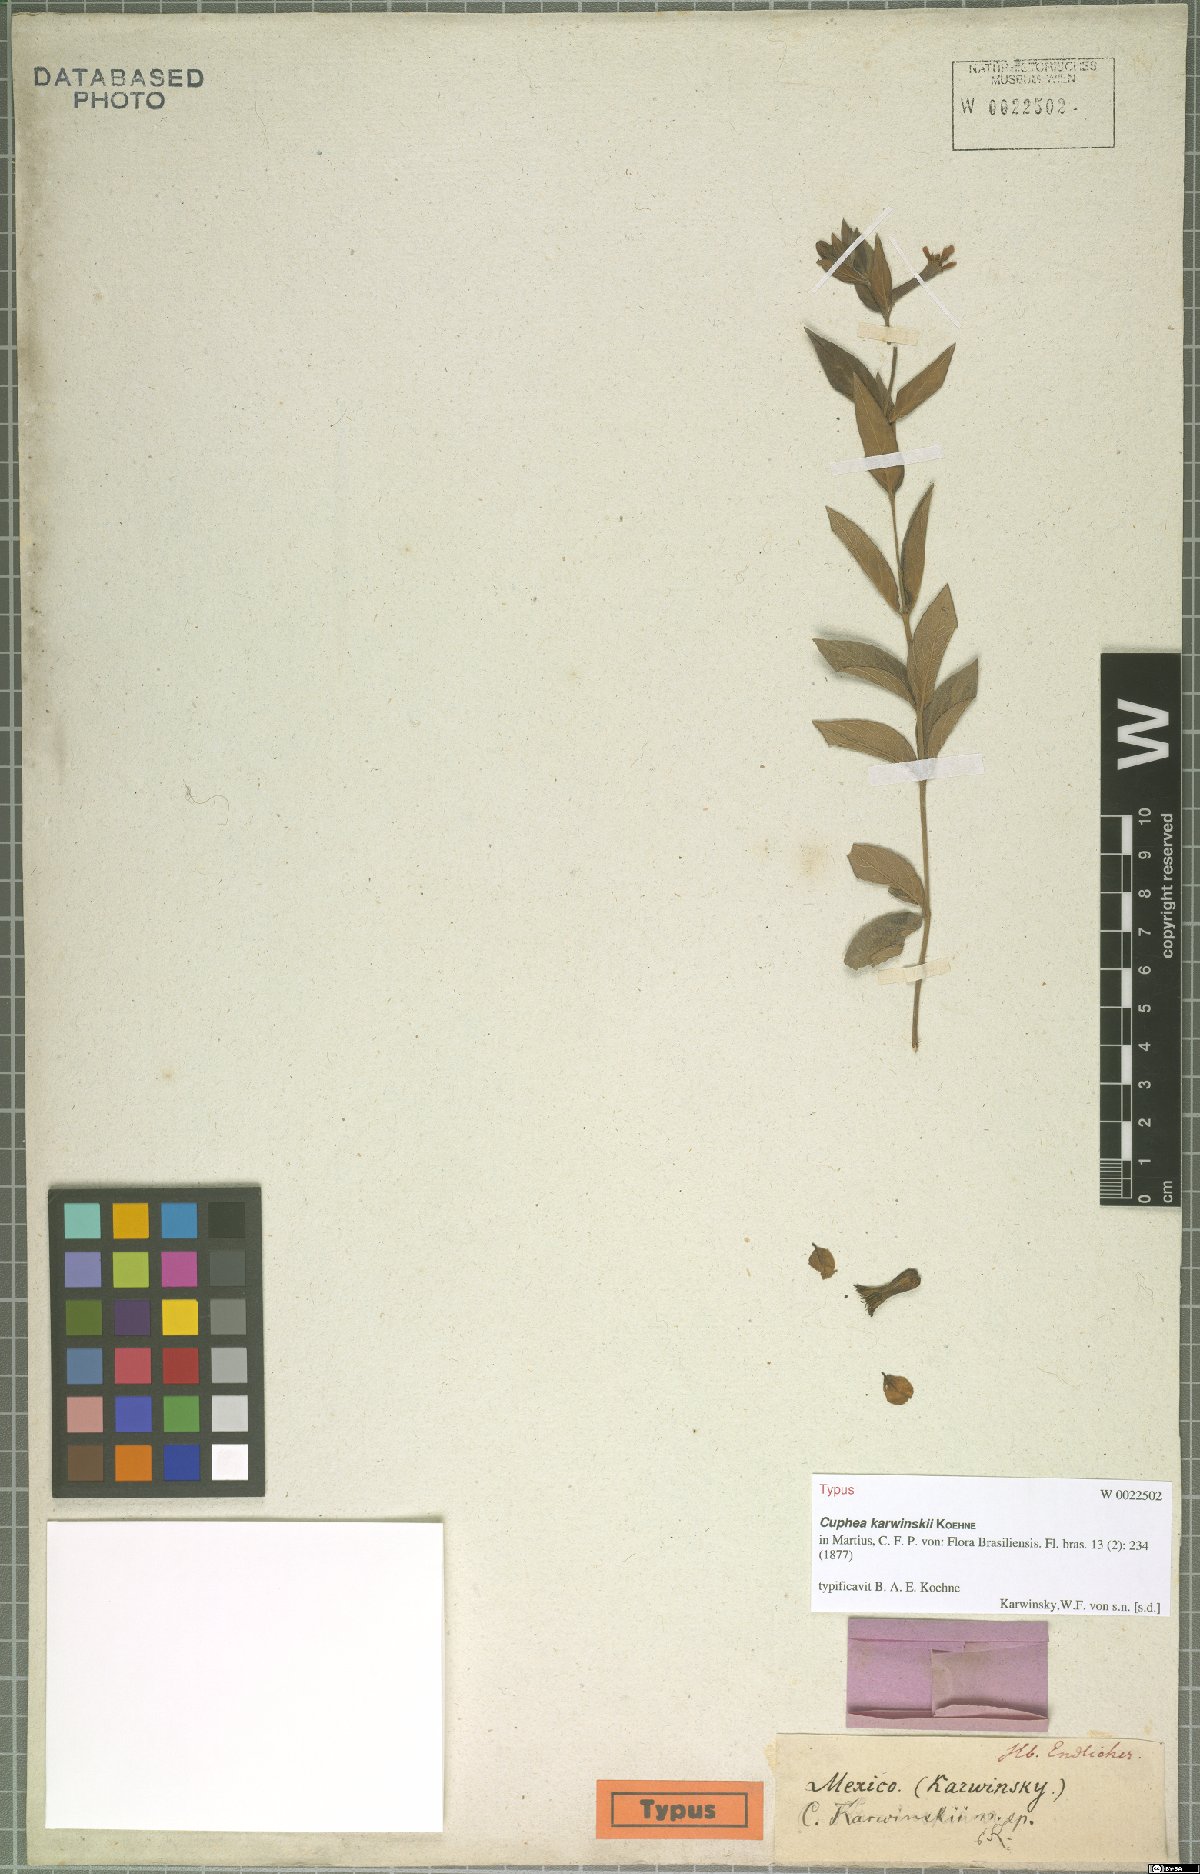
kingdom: Plantae
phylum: Tracheophyta
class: Magnoliopsida
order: Myrtales
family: Lythraceae
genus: Cuphea
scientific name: Cuphea karwinskii
